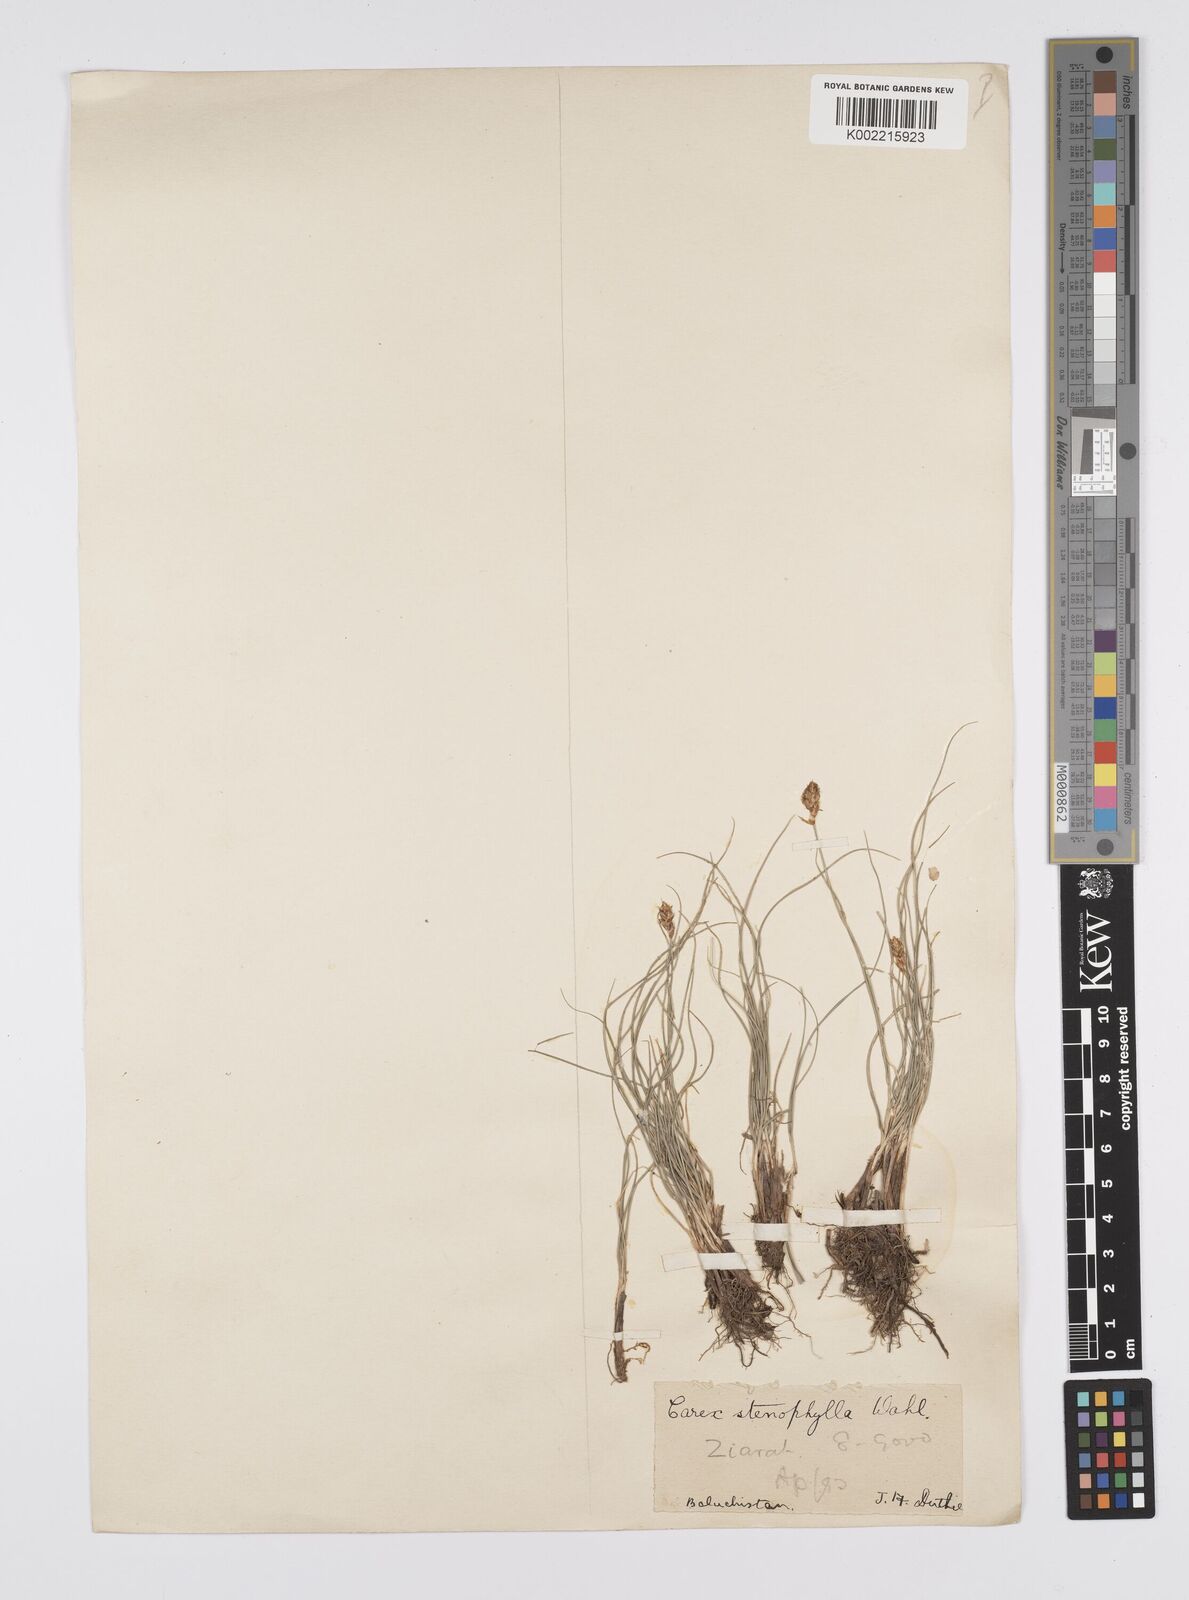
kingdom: Plantae
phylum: Tracheophyta
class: Liliopsida
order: Poales
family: Cyperaceae
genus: Carex
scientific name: Carex stenophylla
